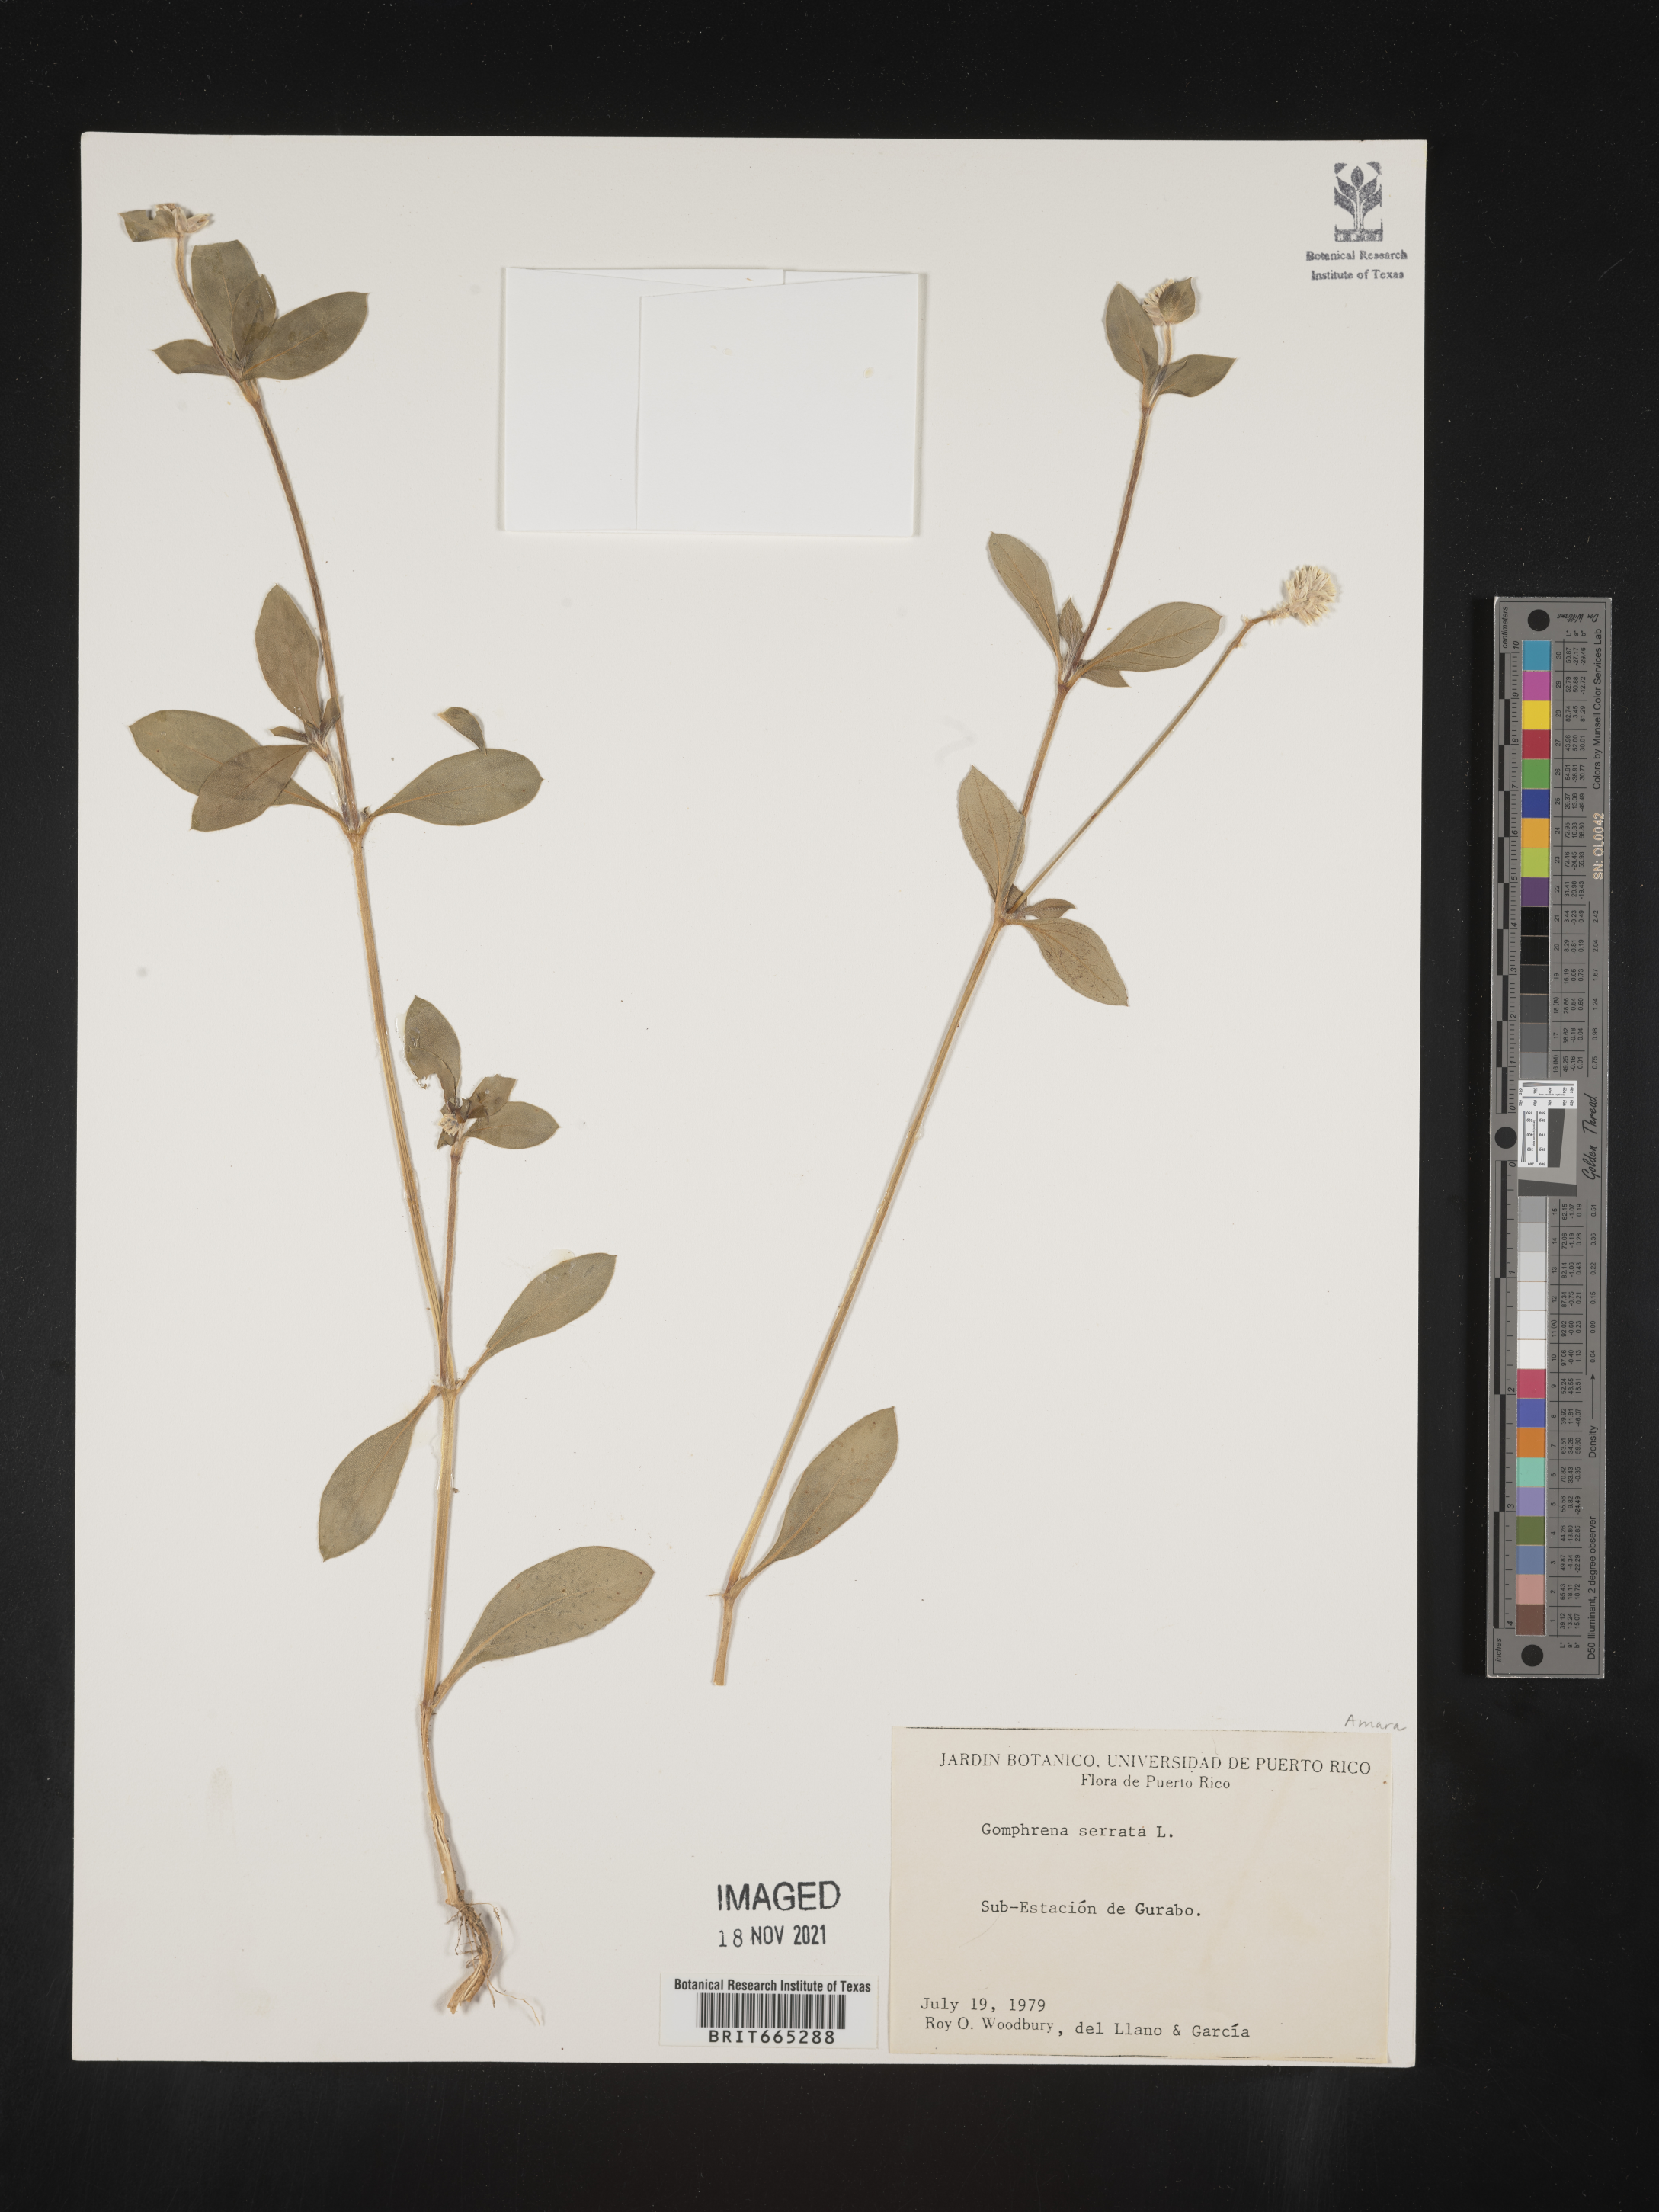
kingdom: Plantae
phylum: Tracheophyta
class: Magnoliopsida
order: Caryophyllales
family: Amaranthaceae
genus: Gomphrena
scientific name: Gomphrena
